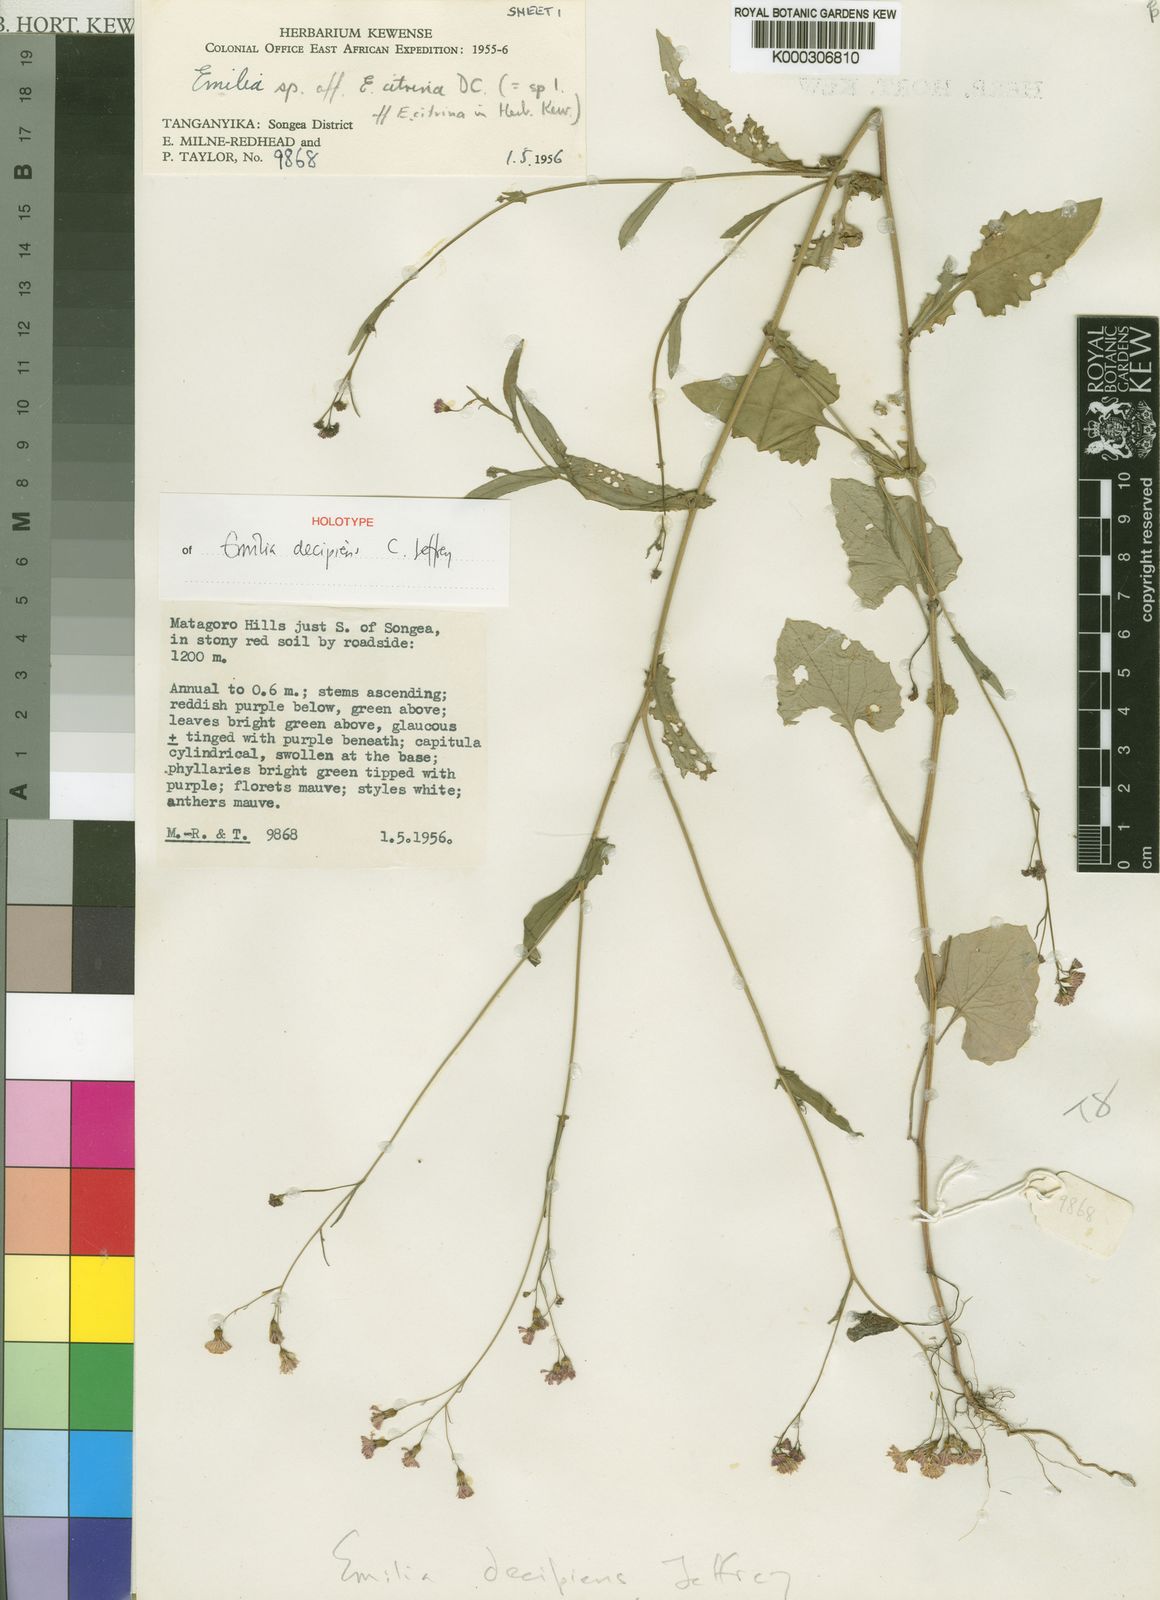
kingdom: Plantae
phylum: Tracheophyta
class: Magnoliopsida
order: Asterales
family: Asteraceae
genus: Emilia
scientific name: Emilia decipiens
